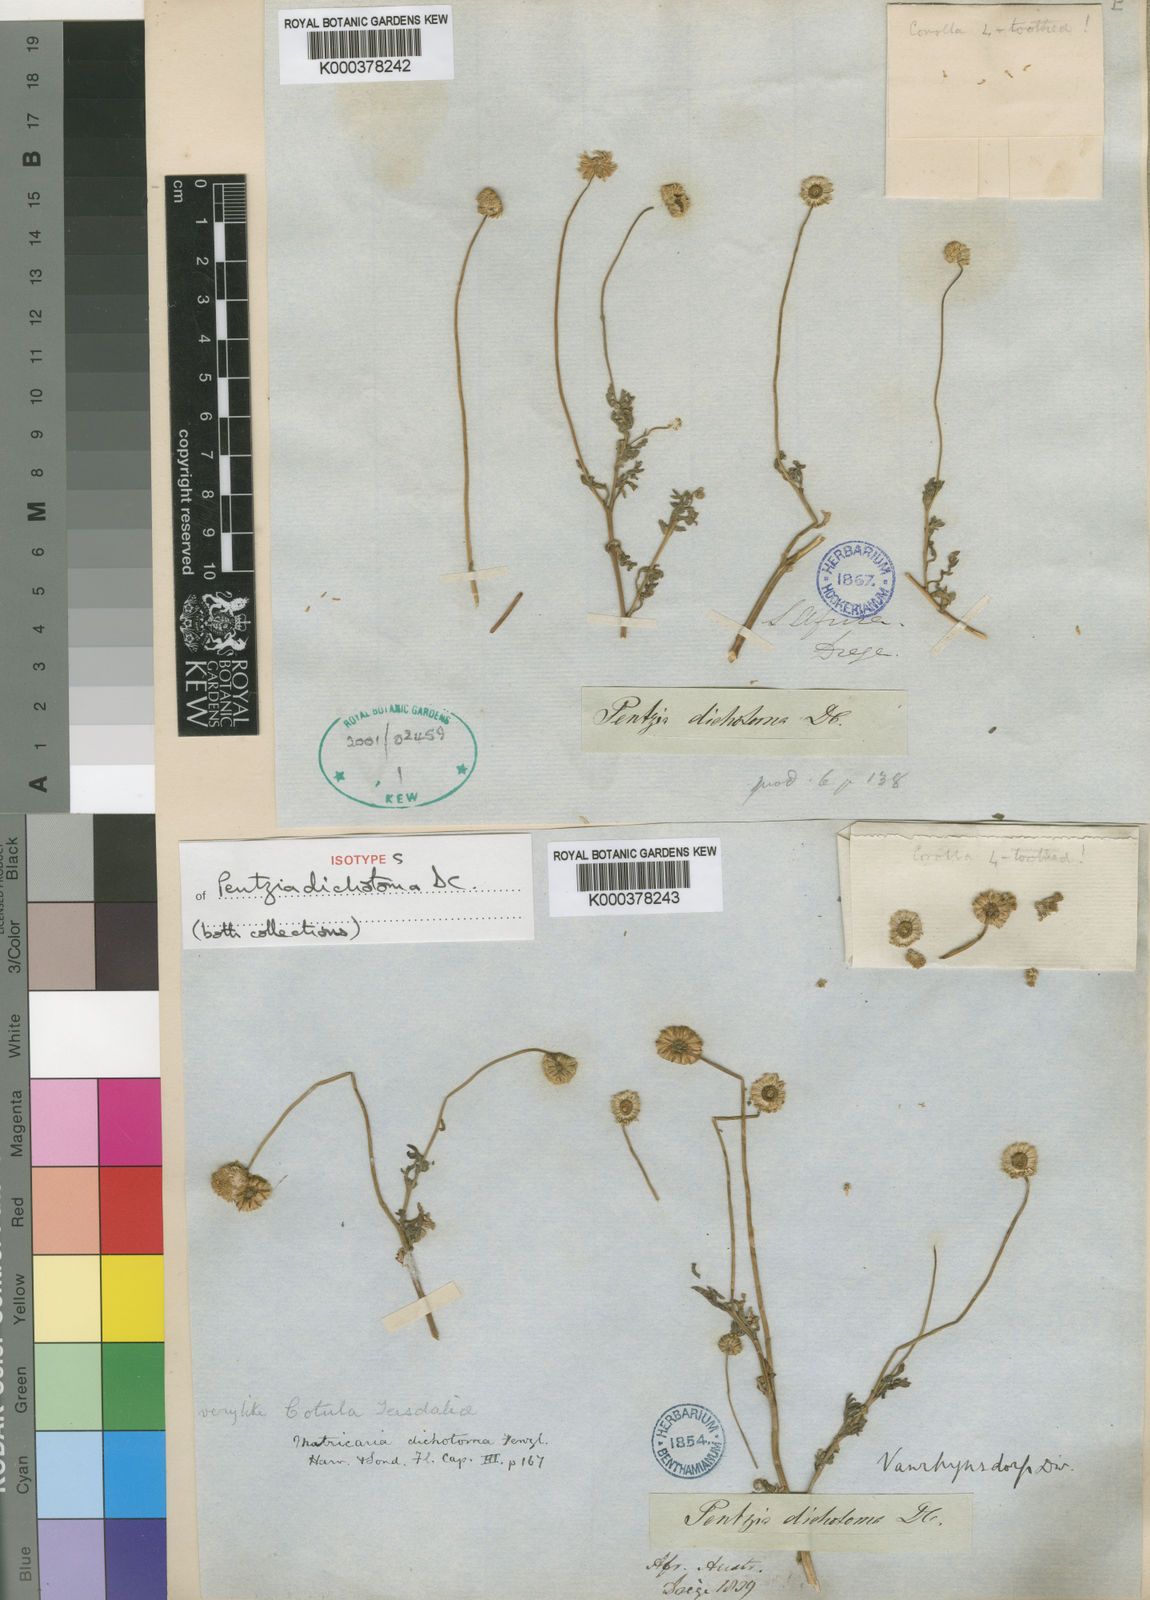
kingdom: Plantae
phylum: Tracheophyta
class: Magnoliopsida
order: Asterales
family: Asteraceae
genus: Foveolina
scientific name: Foveolina
